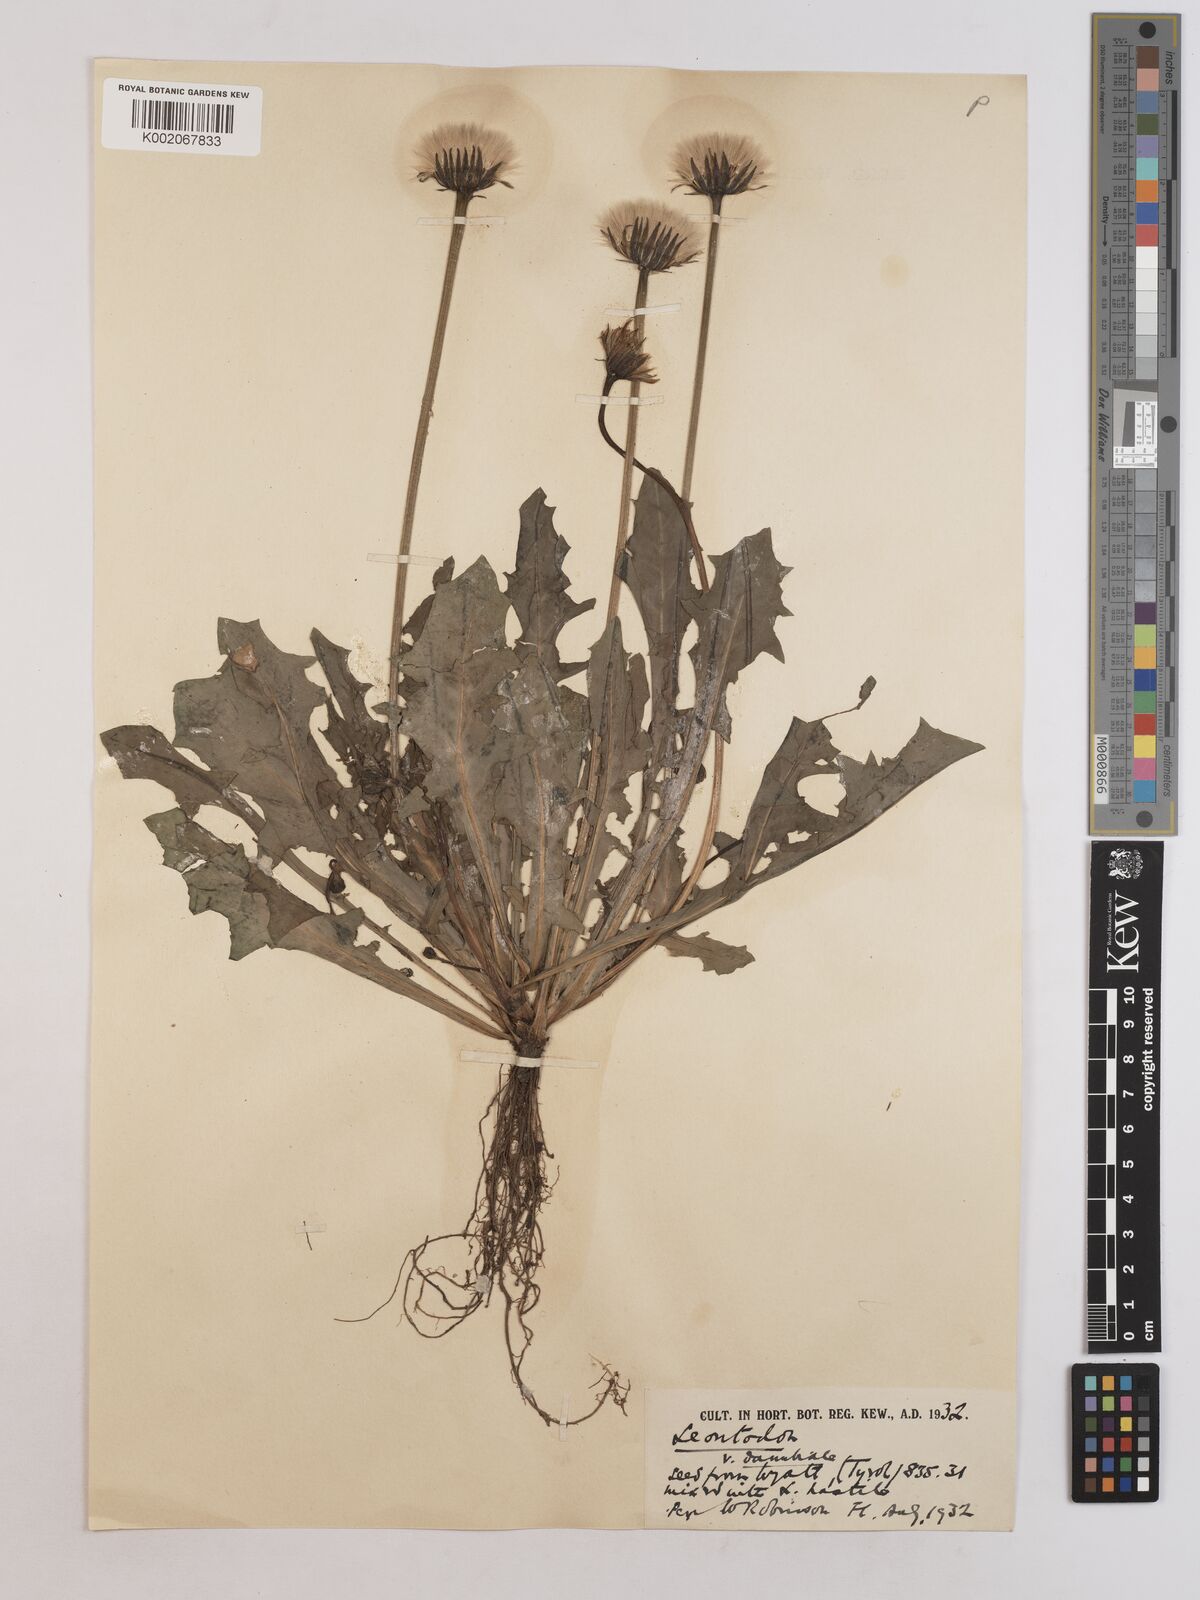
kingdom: Plantae
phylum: Tracheophyta
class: Magnoliopsida
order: Asterales
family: Asteraceae
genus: Leontodon
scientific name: Leontodon
